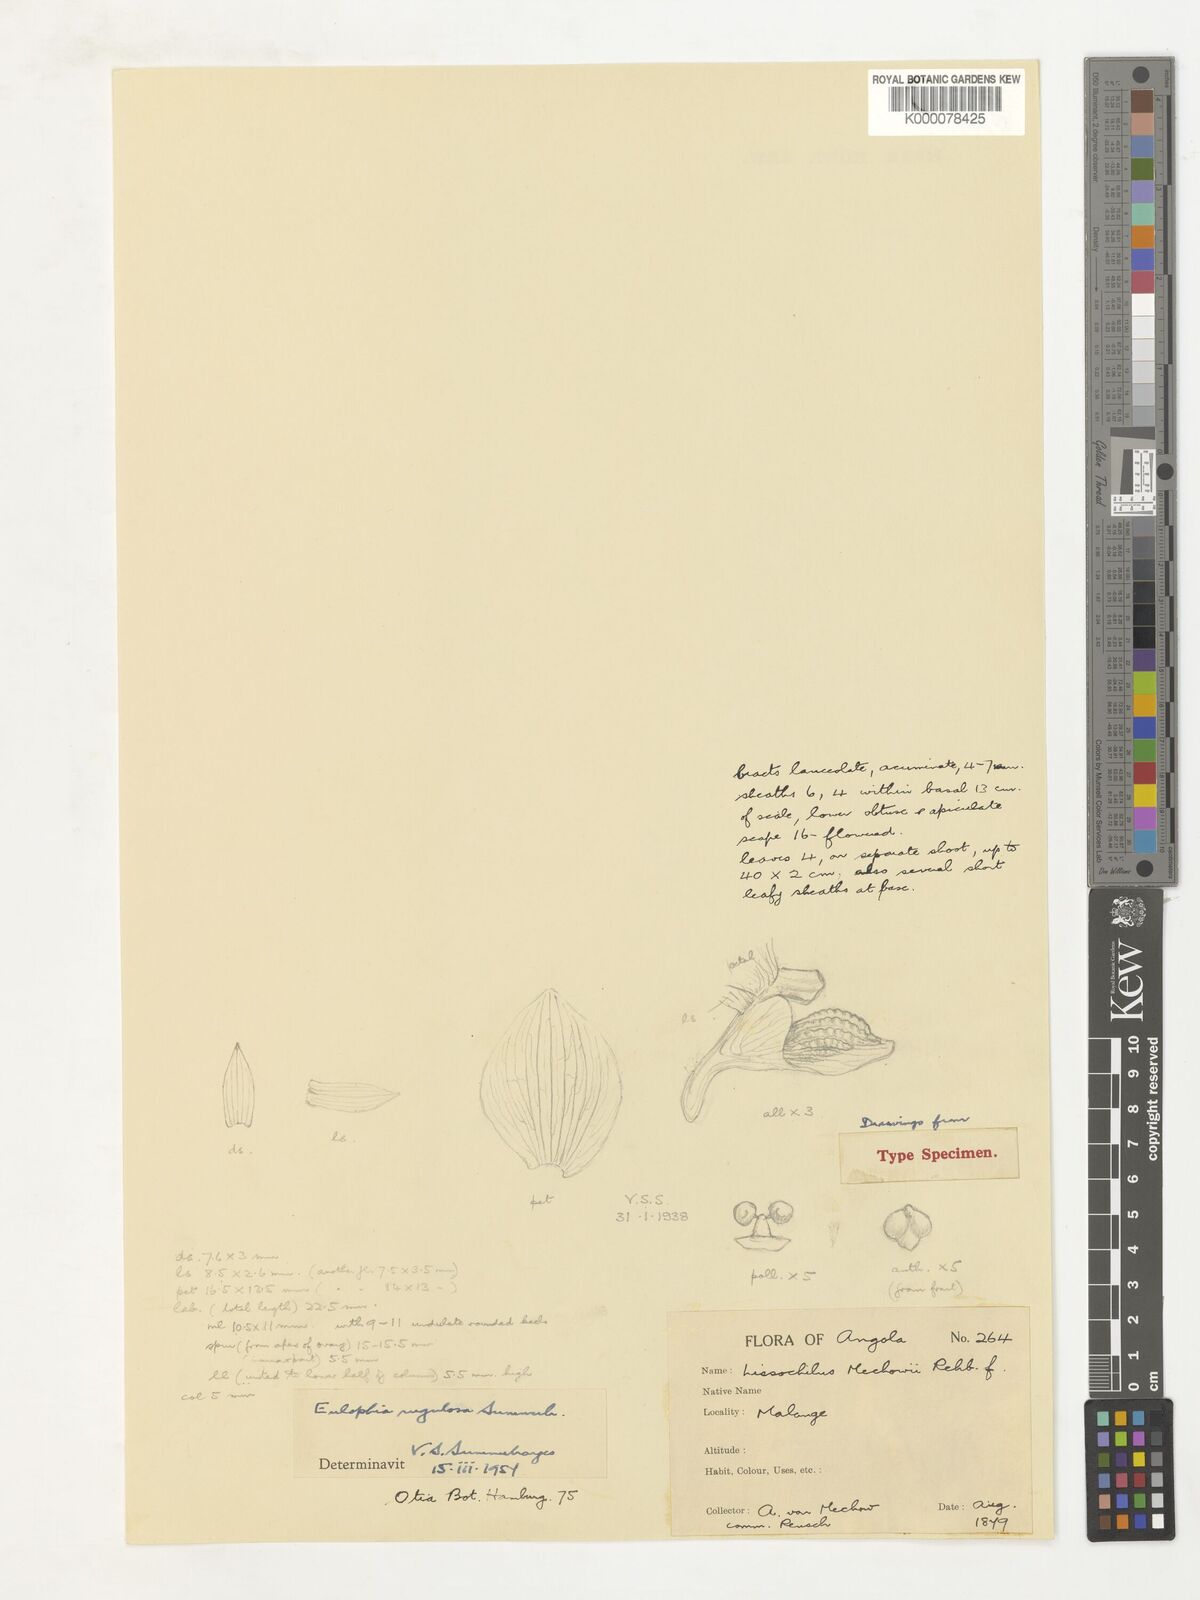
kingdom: Plantae
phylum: Tracheophyta
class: Liliopsida
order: Asparagales
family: Orchidaceae
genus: Eulophia
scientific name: Eulophia orthoplectra
